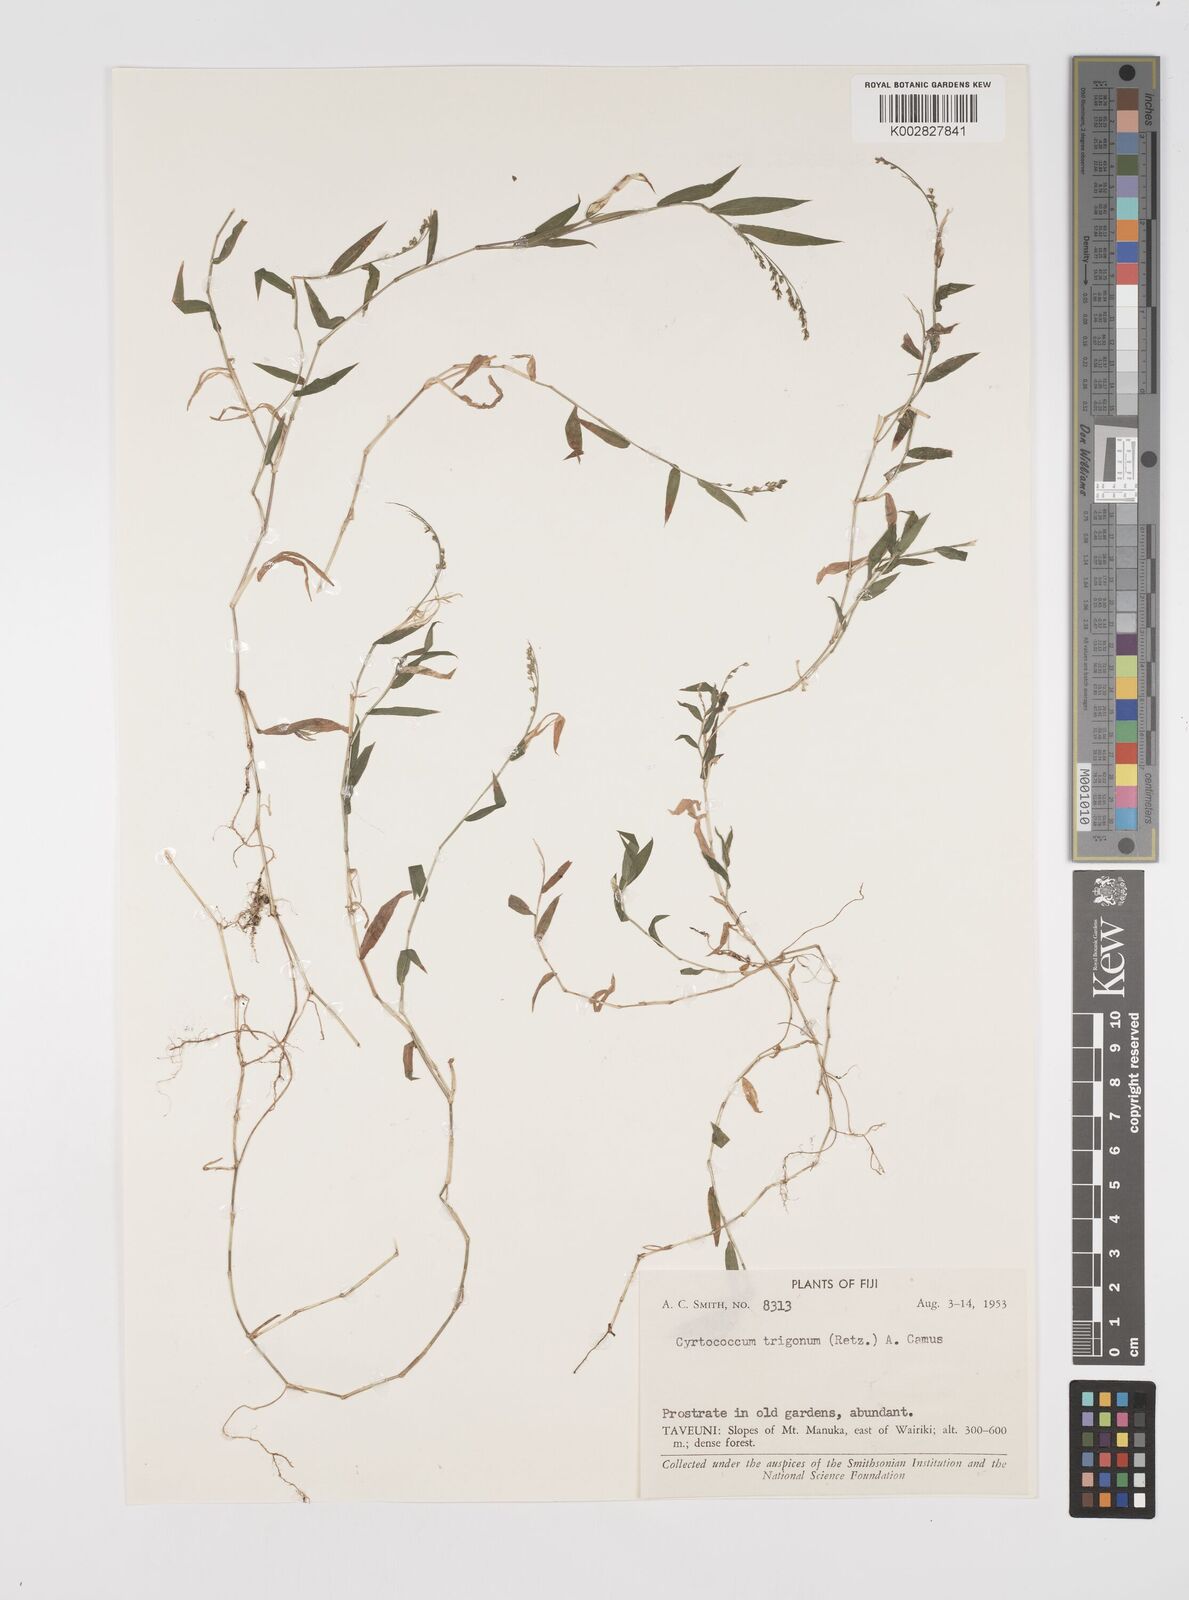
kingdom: Plantae
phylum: Tracheophyta
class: Liliopsida
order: Poales
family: Poaceae
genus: Cyrtococcum
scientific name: Cyrtococcum trigonum
